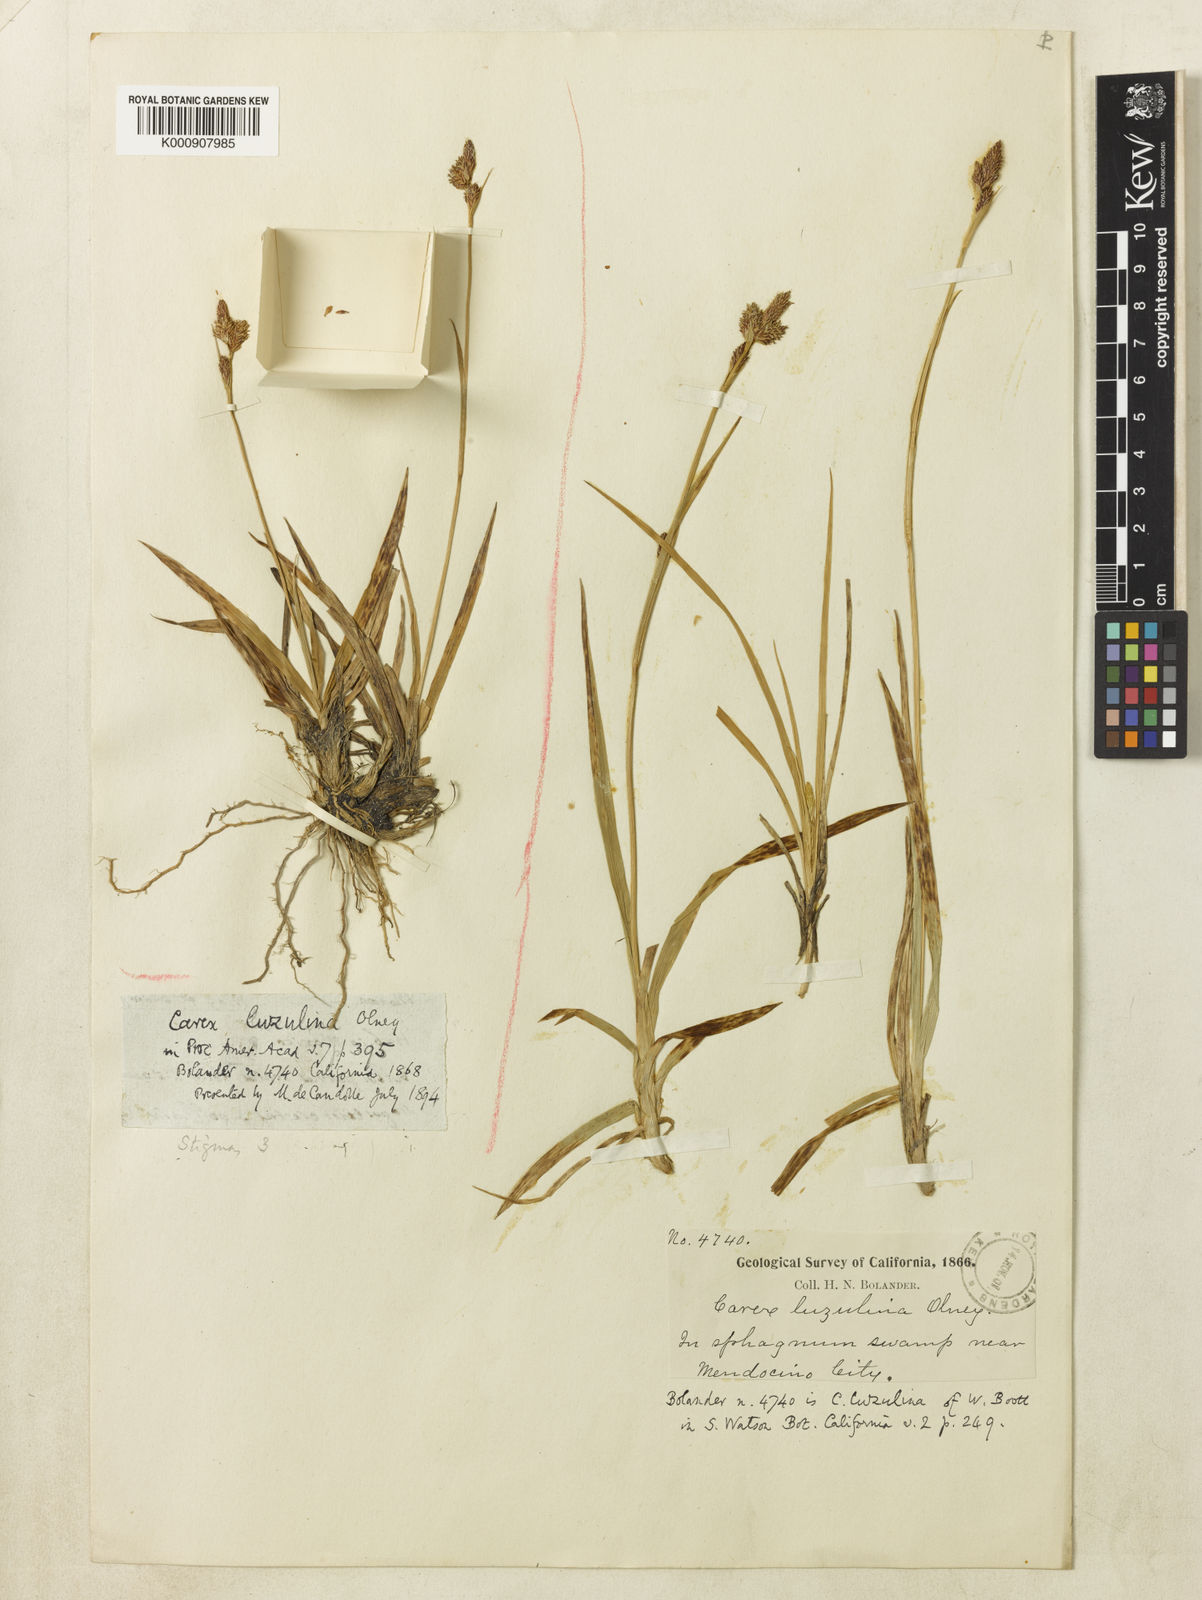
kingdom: Plantae
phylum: Tracheophyta
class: Liliopsida
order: Poales
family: Cyperaceae
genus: Carex
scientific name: Carex luzulina
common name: Spring sedge
